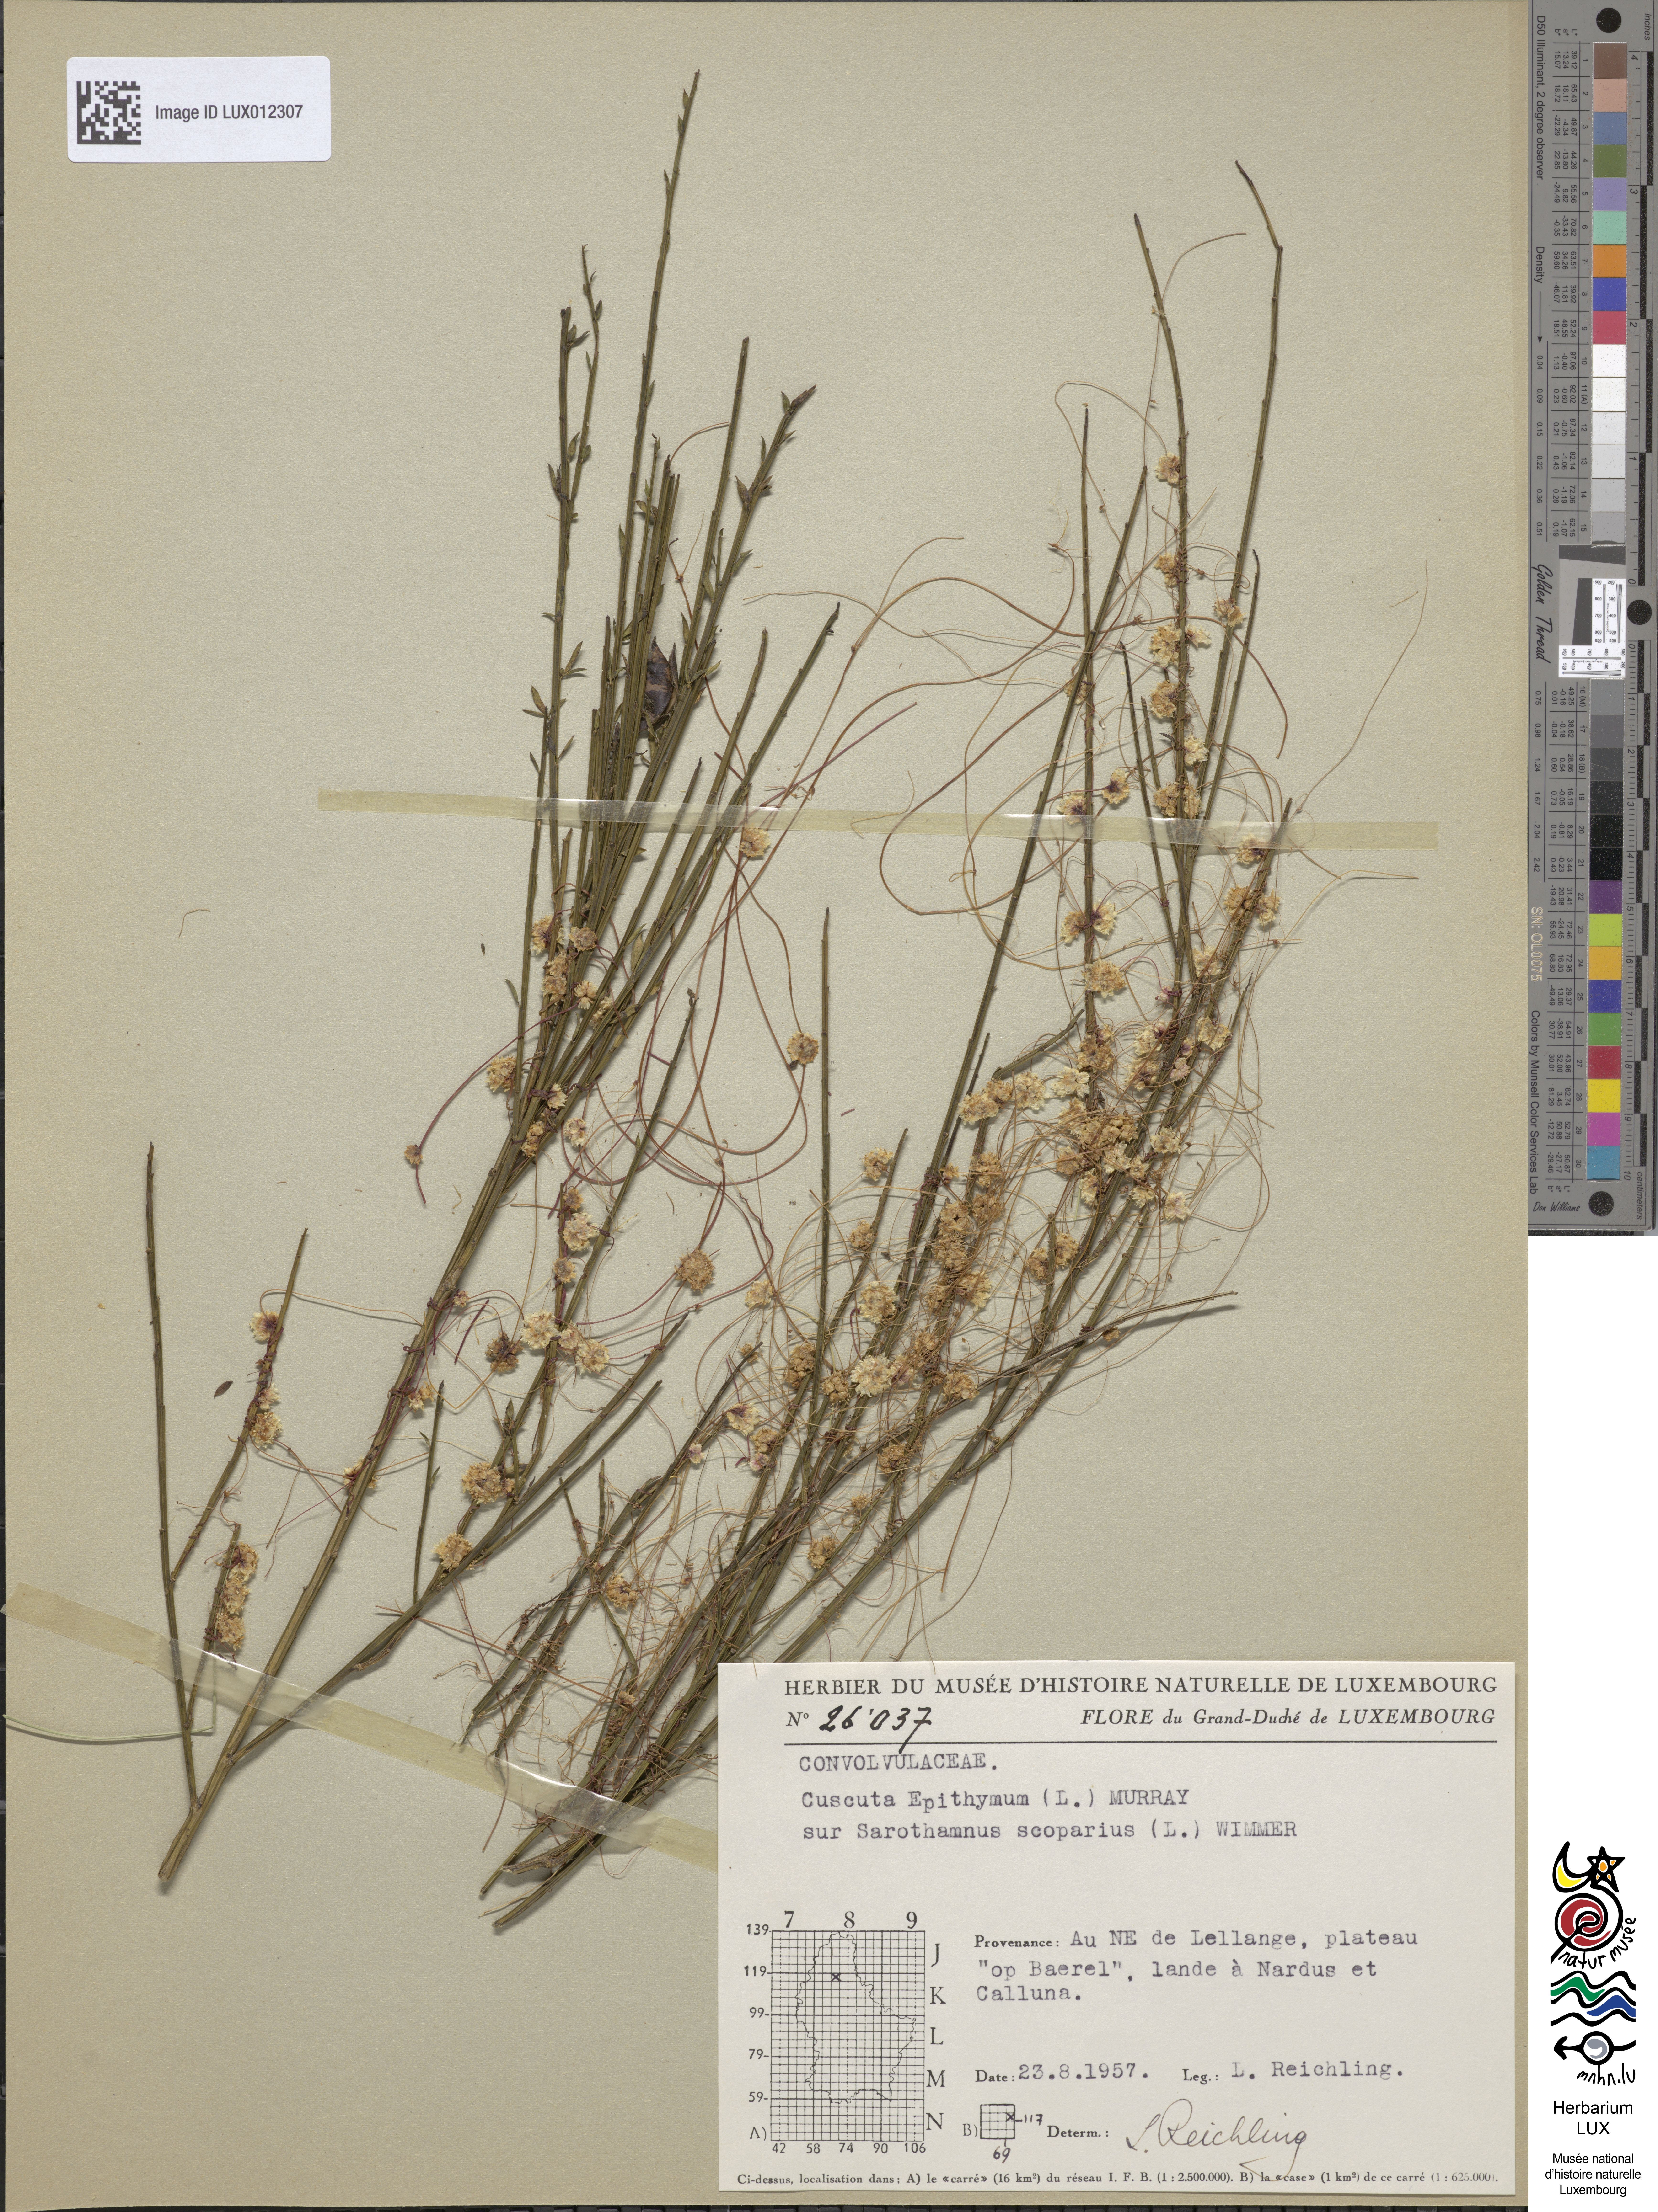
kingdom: Plantae
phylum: Tracheophyta
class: Magnoliopsida
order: Solanales
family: Convolvulaceae
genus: Cuscuta
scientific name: Cuscuta epithymum
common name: Clover dodder
